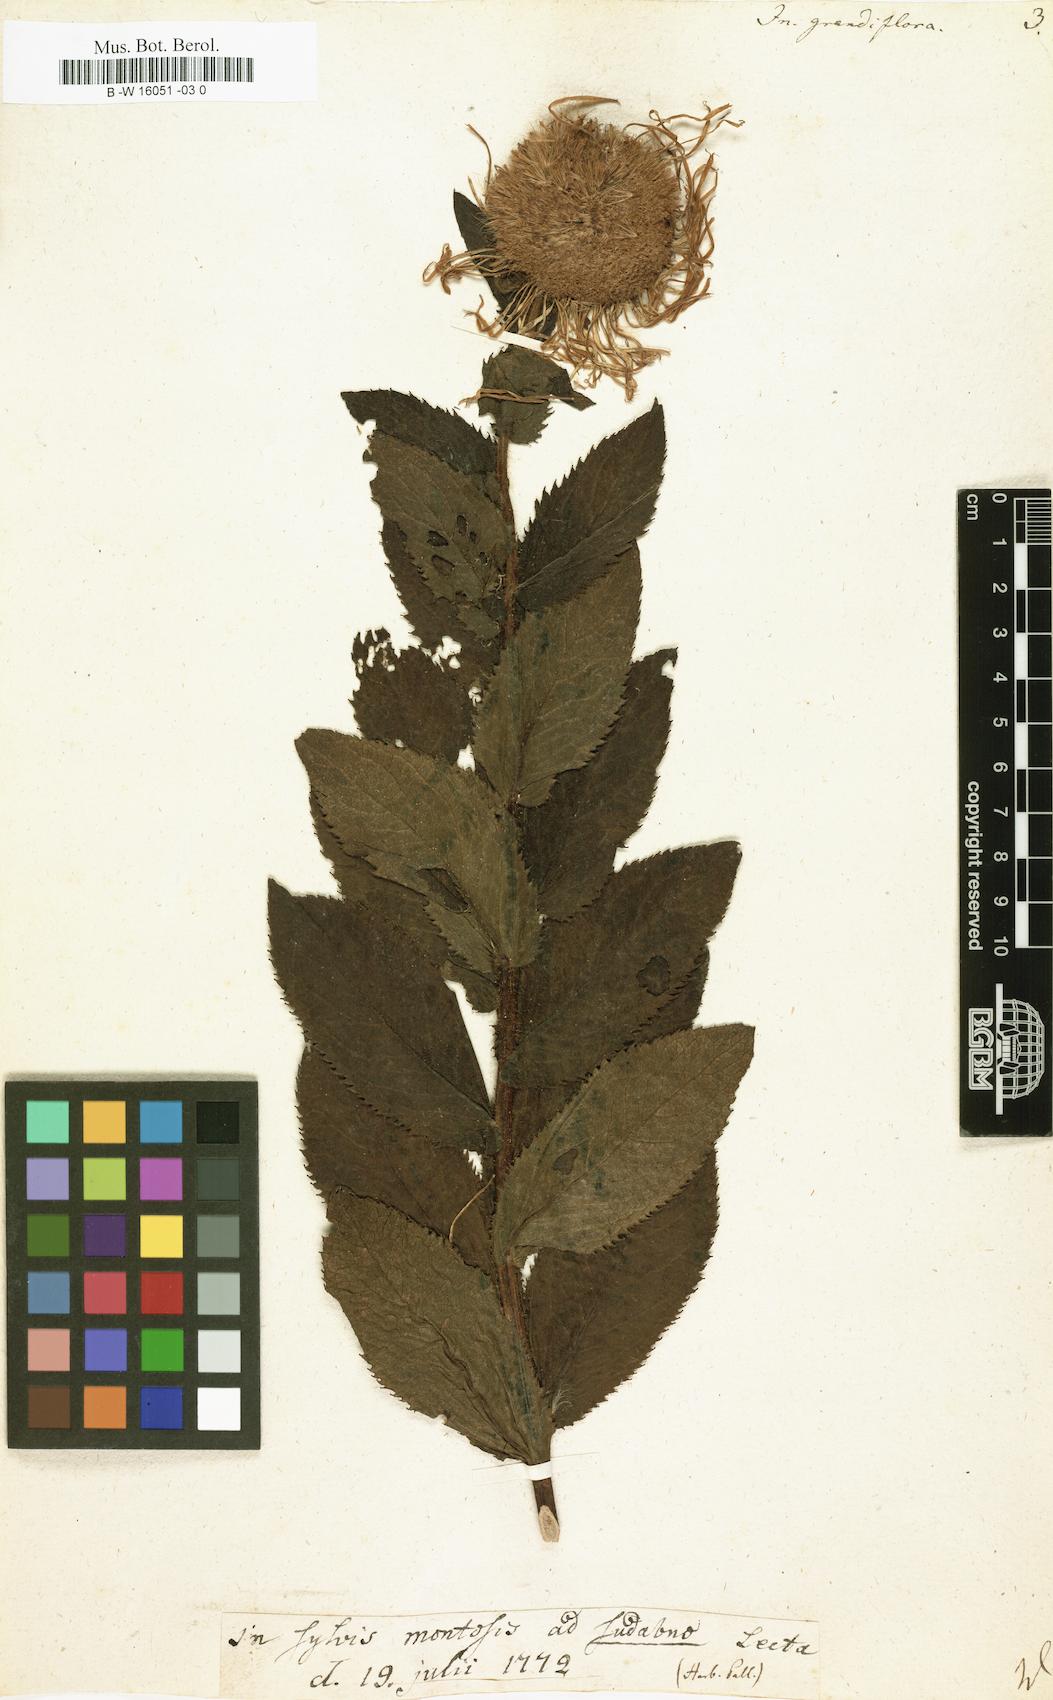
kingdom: Plantae
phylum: Tracheophyta
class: Magnoliopsida
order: Asterales
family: Asteraceae
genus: Inula
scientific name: Inula grandiflora
